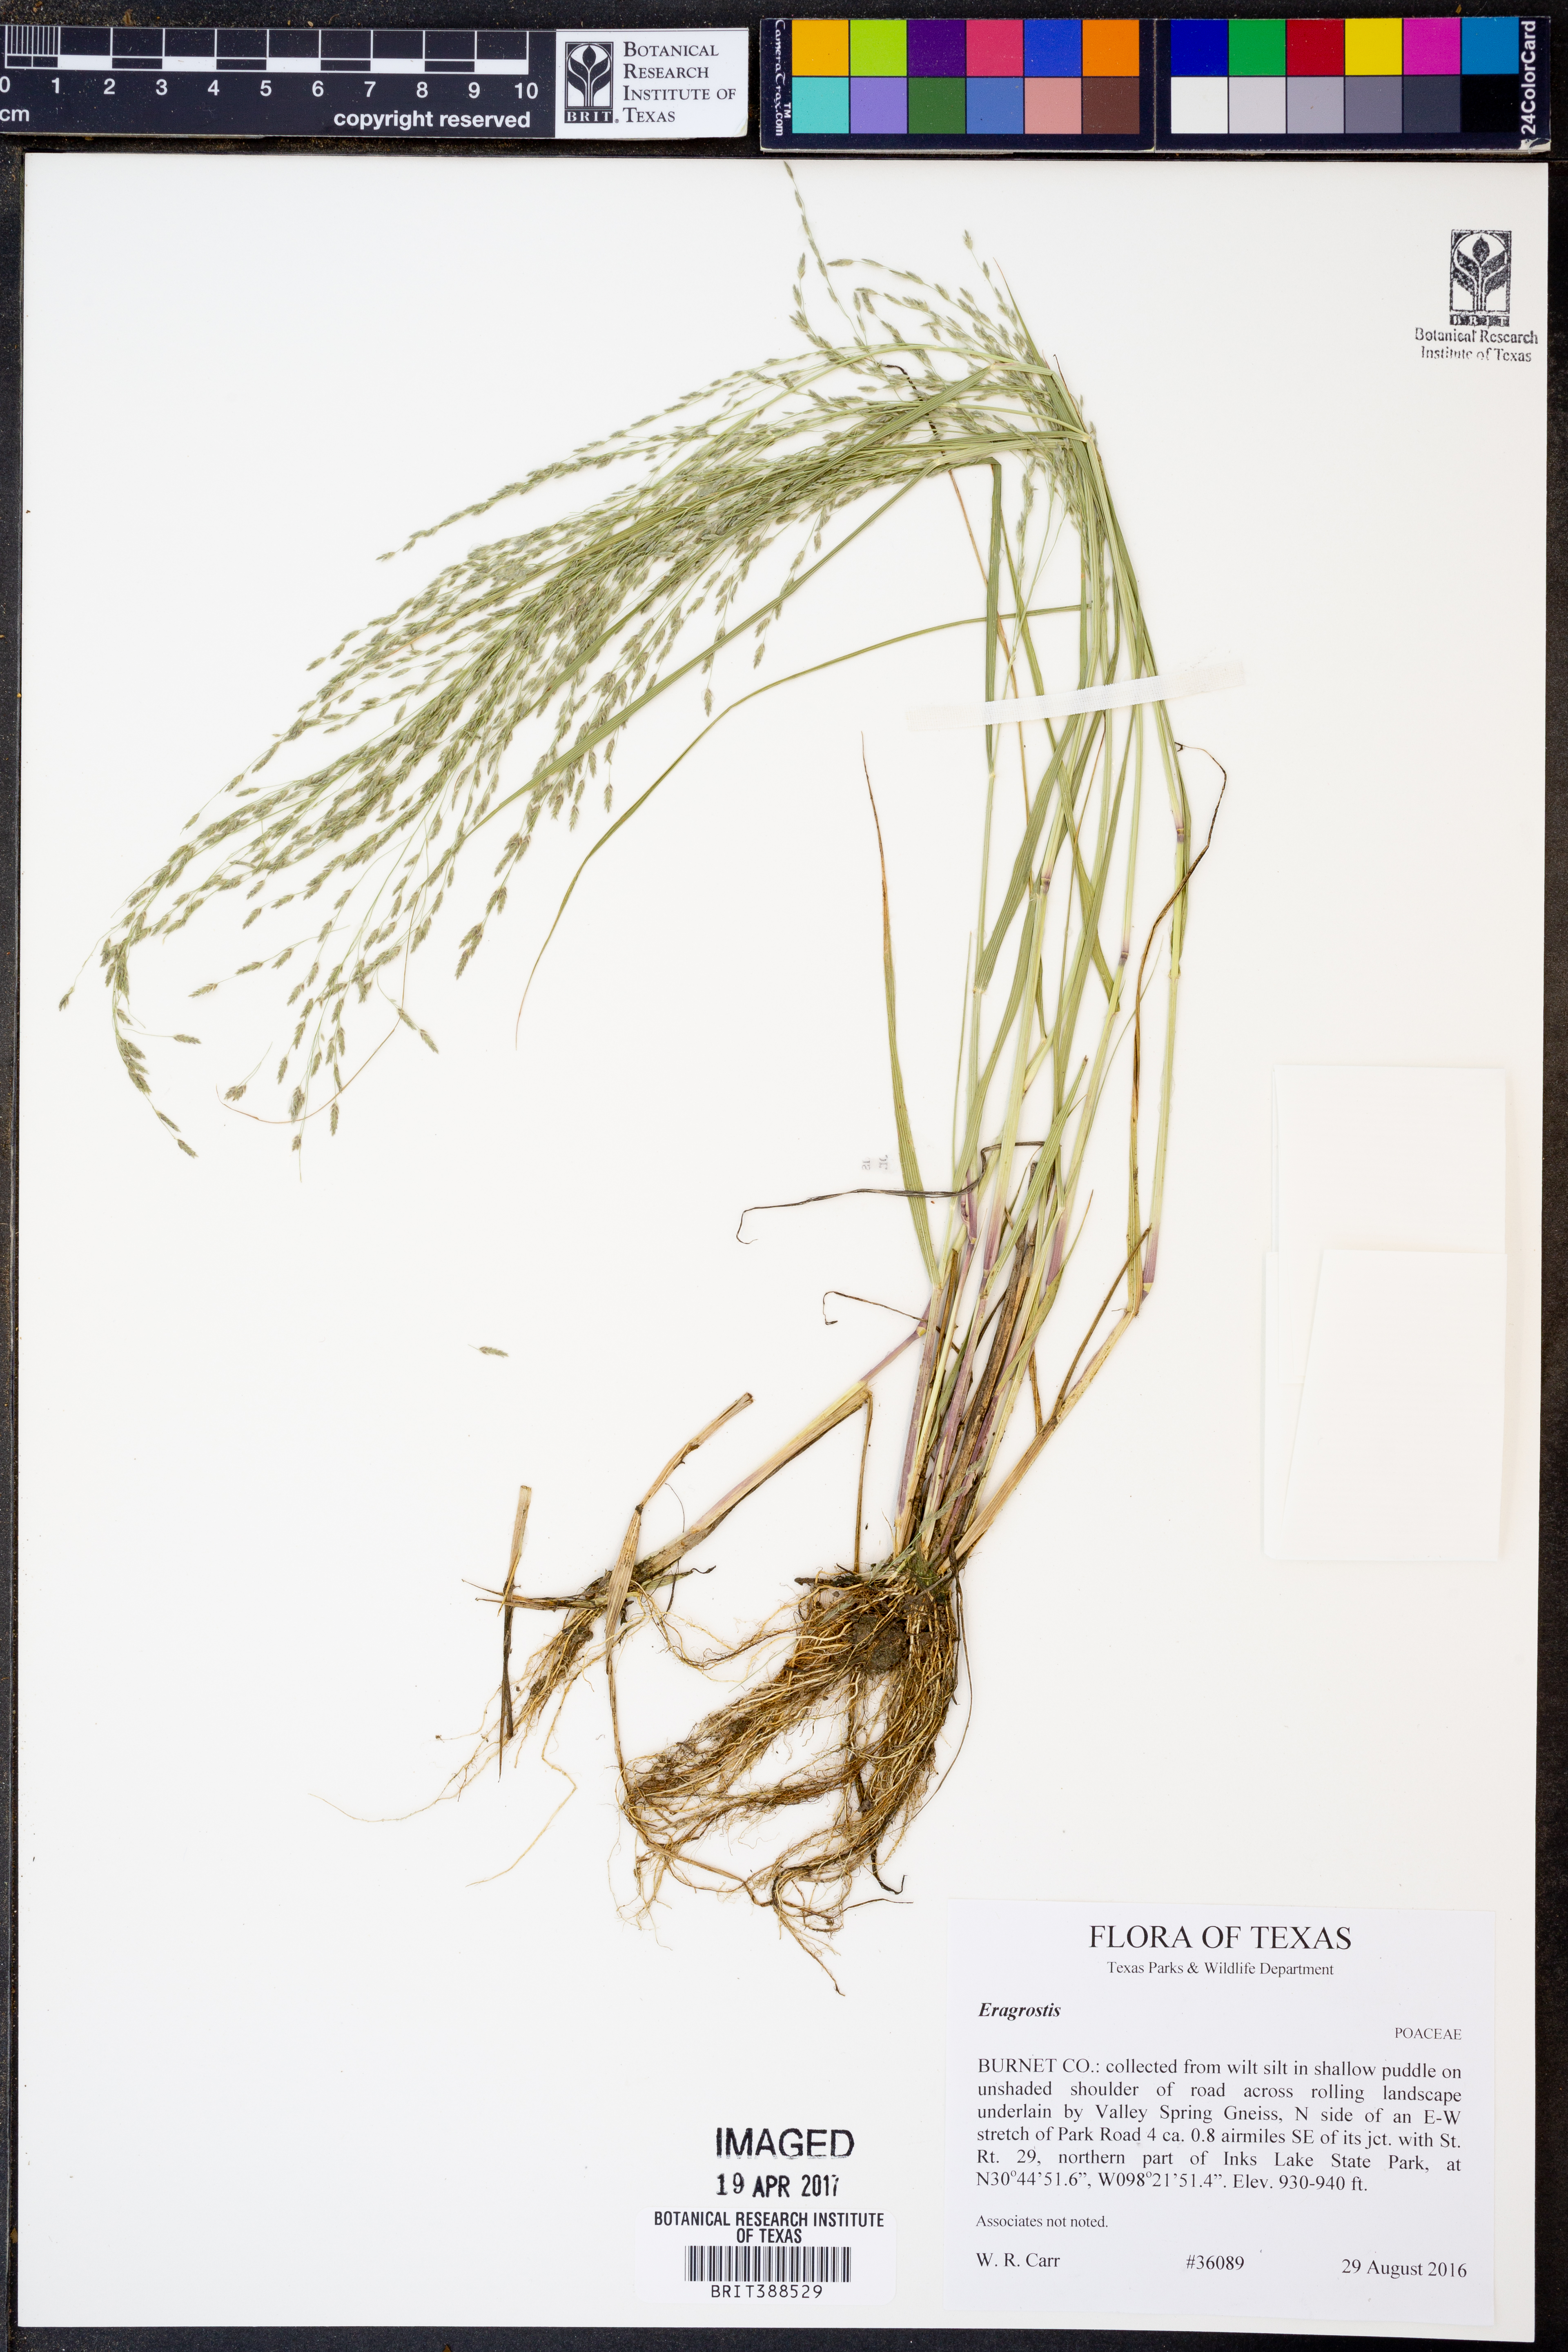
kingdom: Plantae
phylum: Tracheophyta
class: Liliopsida
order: Poales
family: Poaceae
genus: Eragrostis
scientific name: Eragrostis
